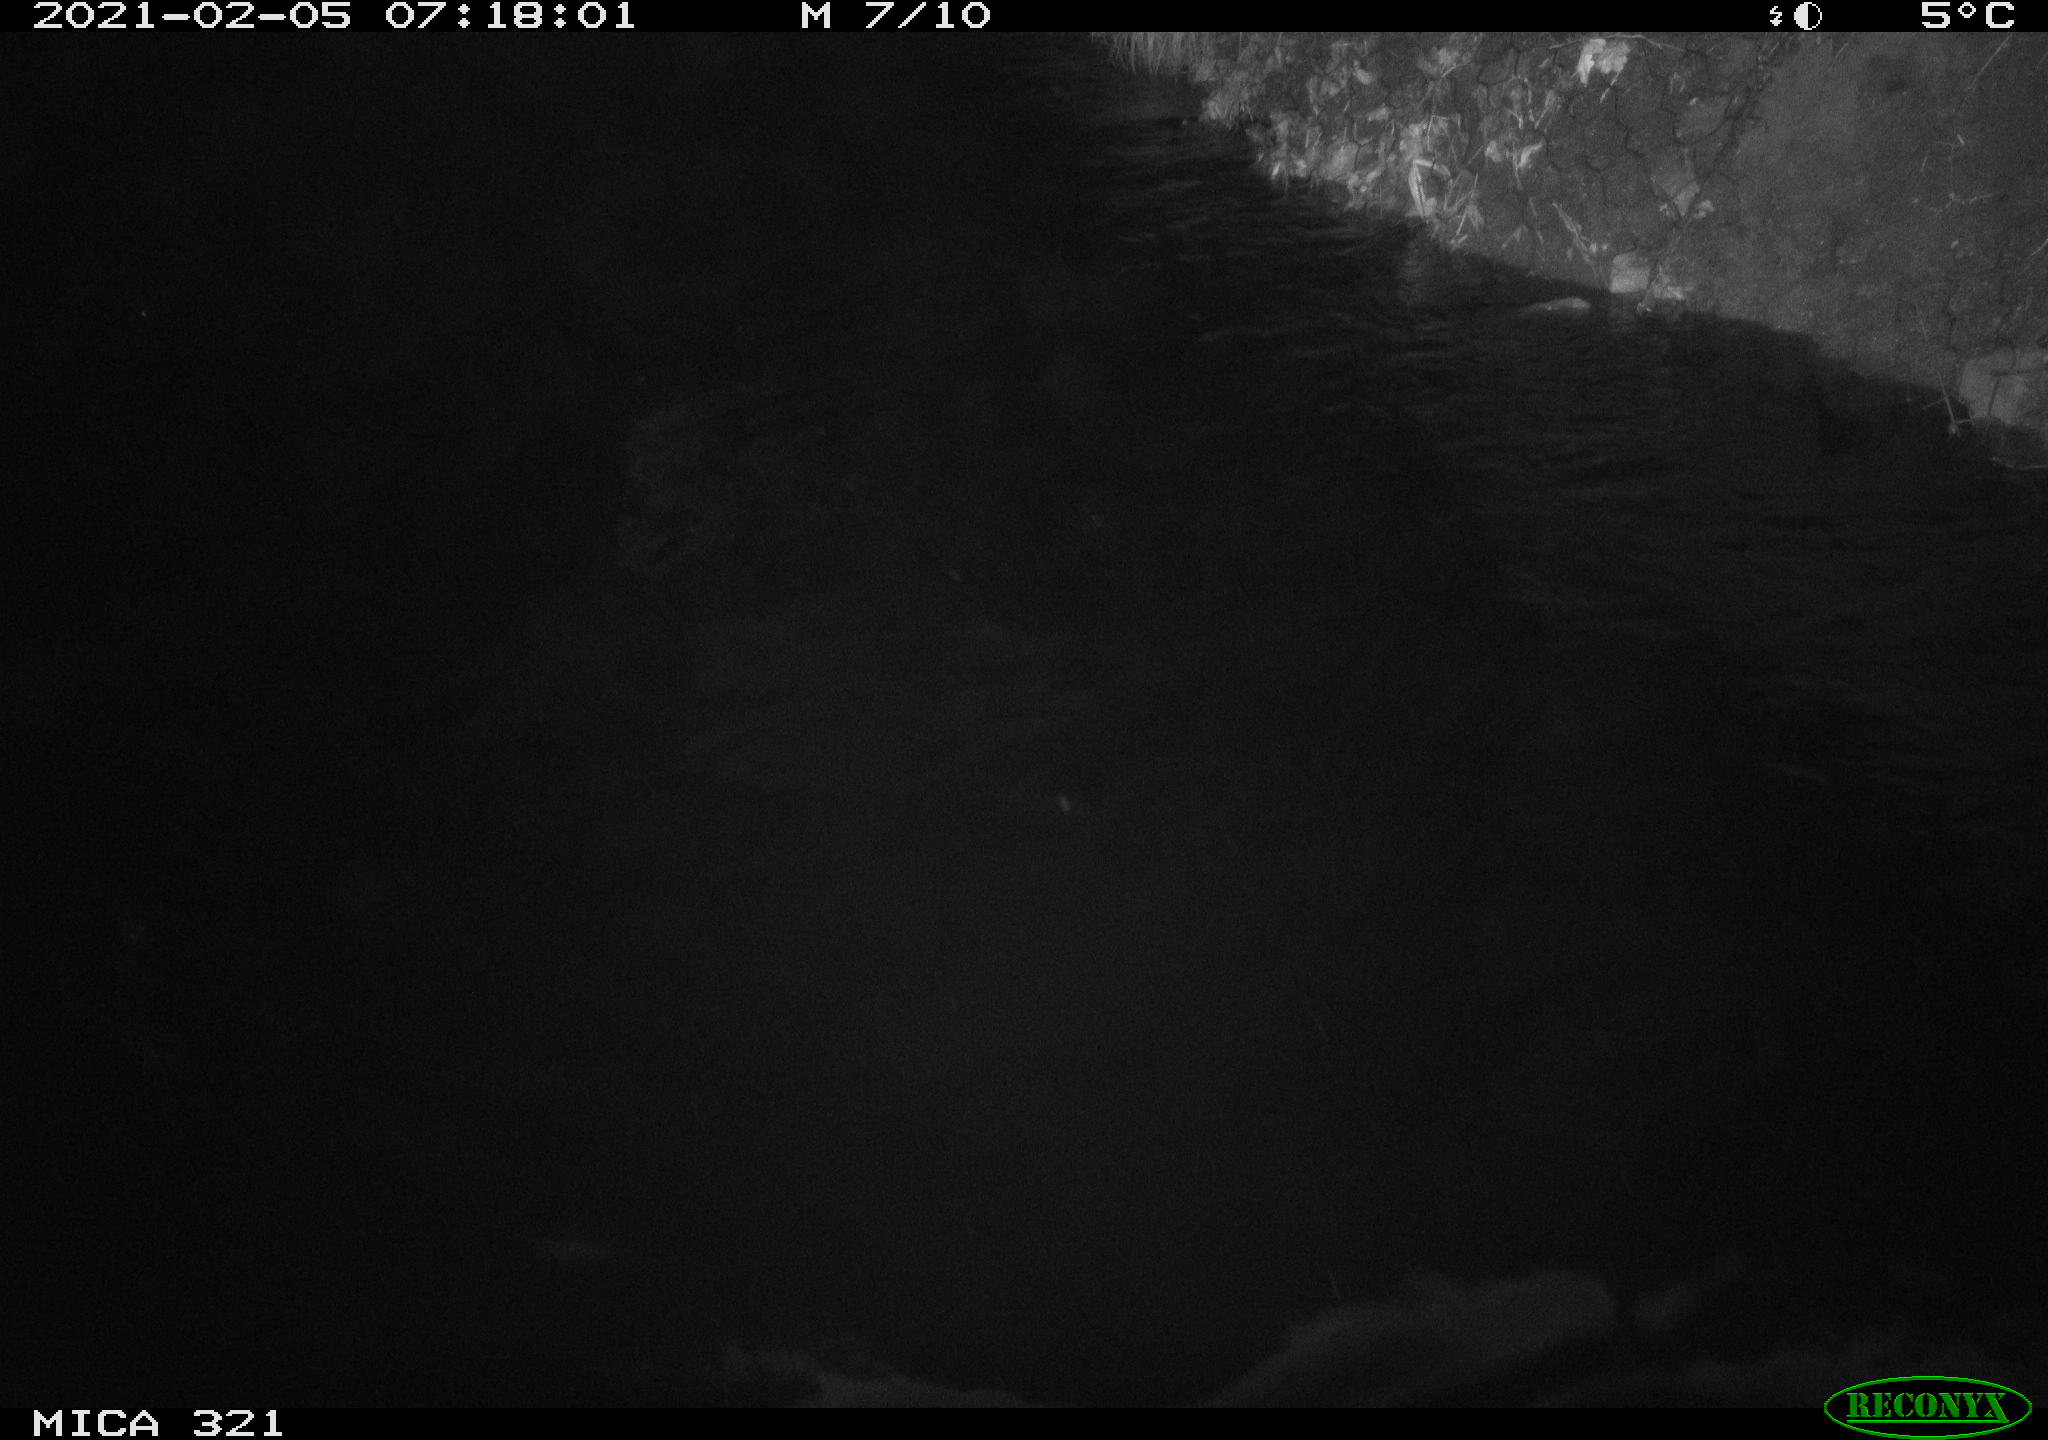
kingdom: Animalia
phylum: Chordata
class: Aves
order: Anseriformes
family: Anatidae
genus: Anas
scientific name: Anas platyrhynchos
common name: Mallard
